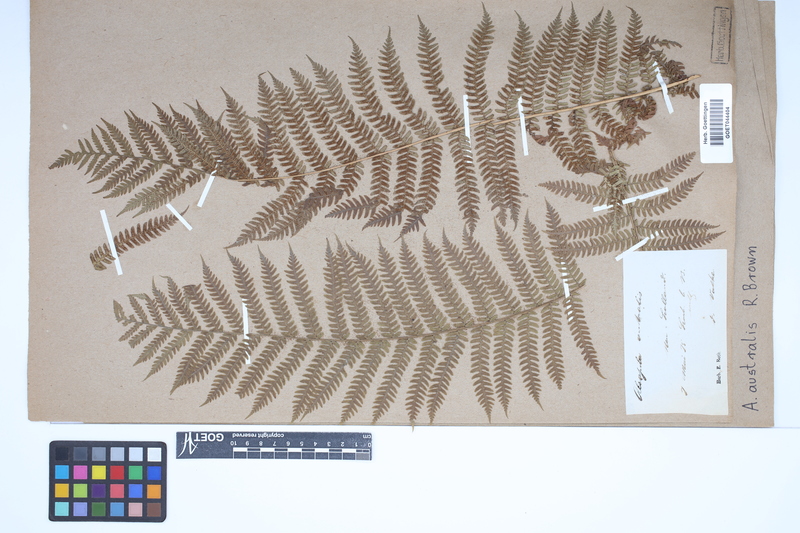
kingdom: Plantae
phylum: Tracheophyta
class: Polypodiopsida
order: Cyatheales
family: Cyatheaceae
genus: Alsophila
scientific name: Alsophila australis
